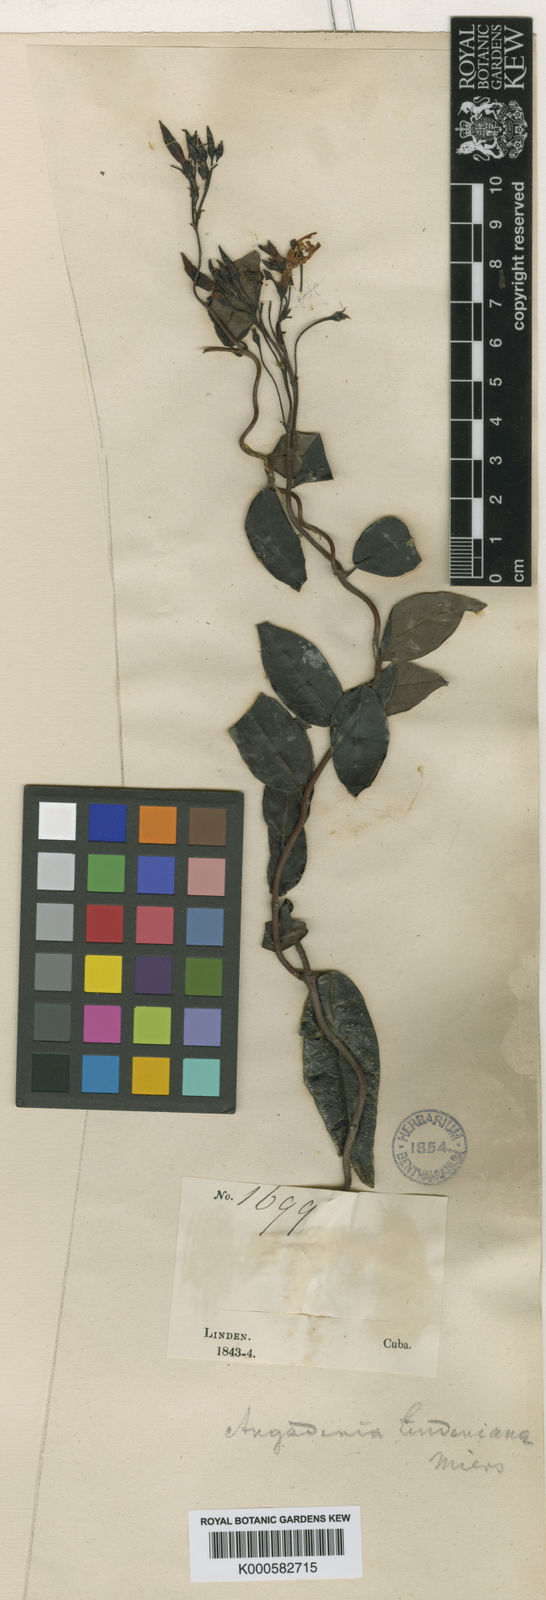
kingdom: Plantae
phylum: Tracheophyta
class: Magnoliopsida
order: Gentianales
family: Apocynaceae
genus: Angadenia
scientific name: Angadenia lindeniana
